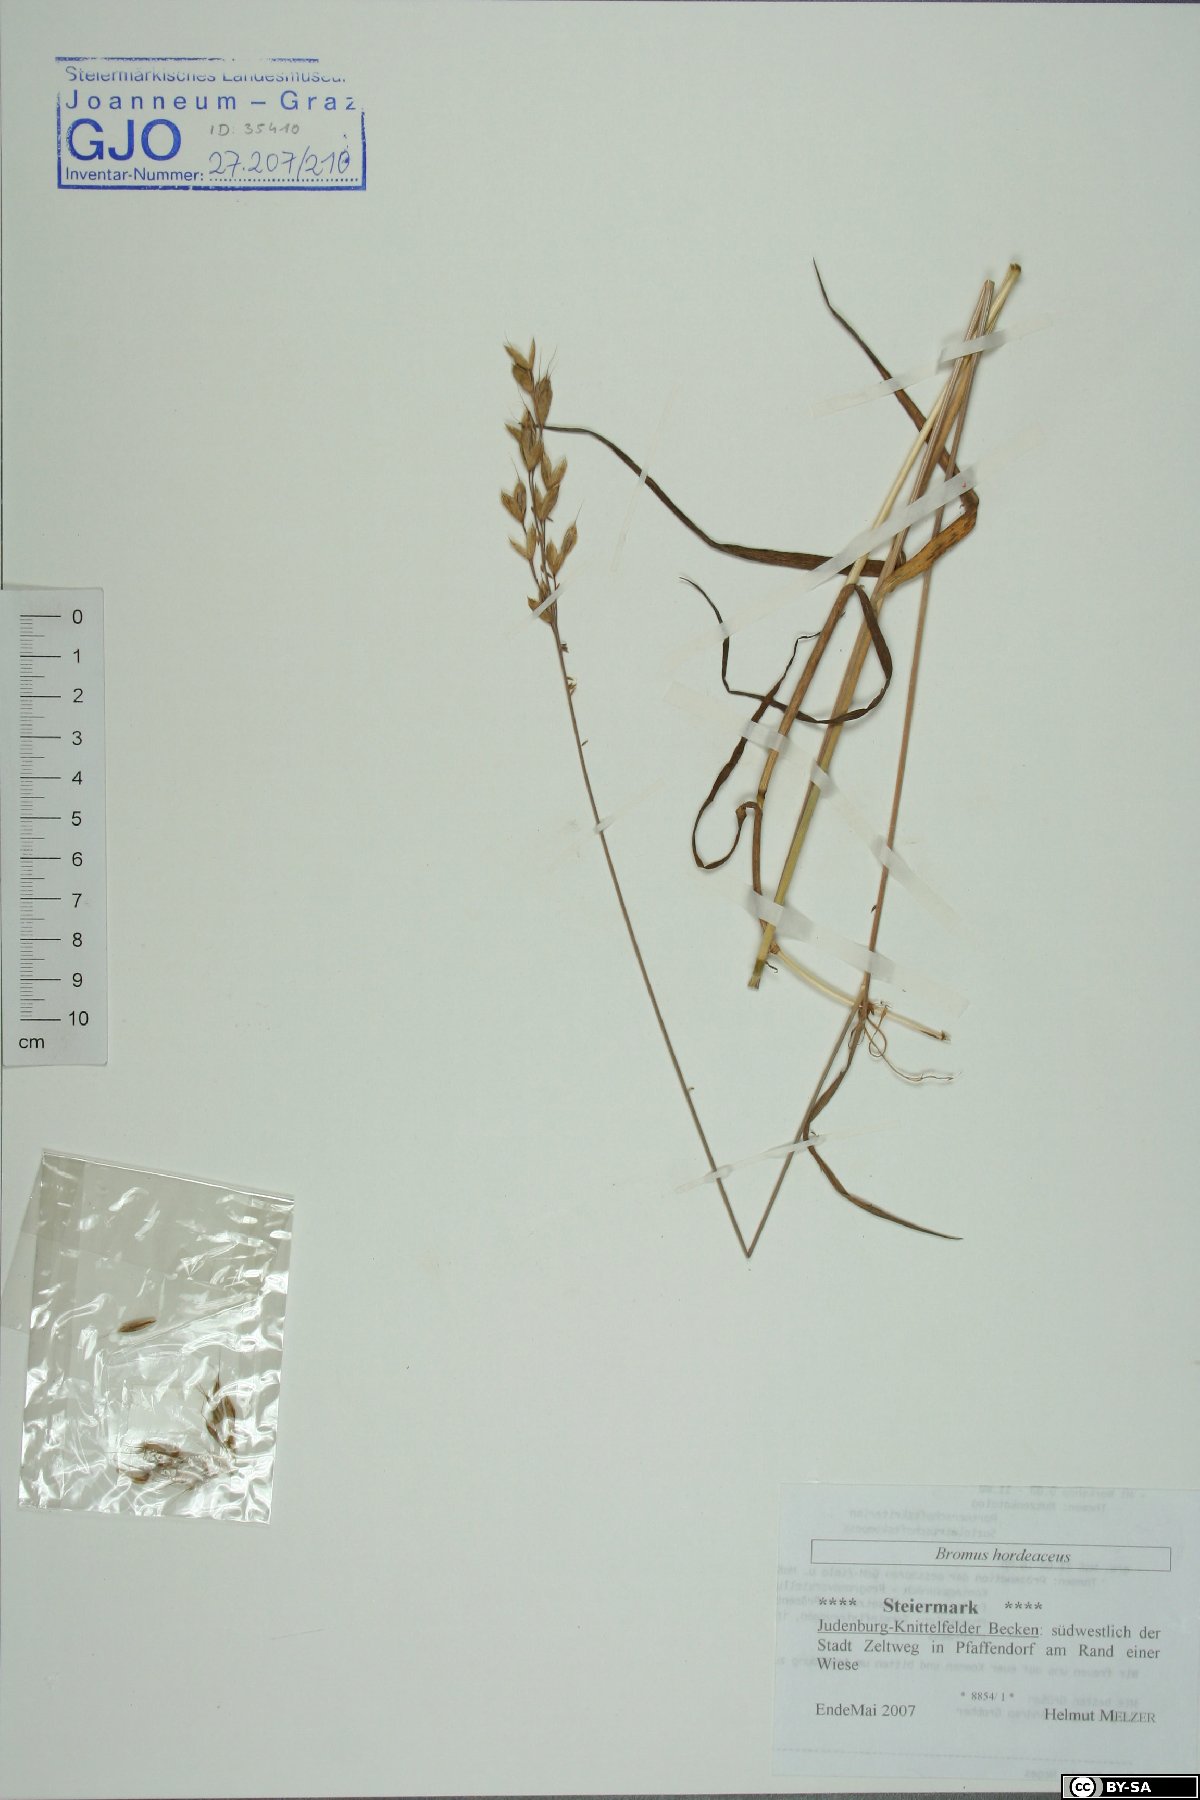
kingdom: Plantae
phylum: Tracheophyta
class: Liliopsida
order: Poales
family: Poaceae
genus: Bromus
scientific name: Bromus hordeaceus
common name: Soft brome
